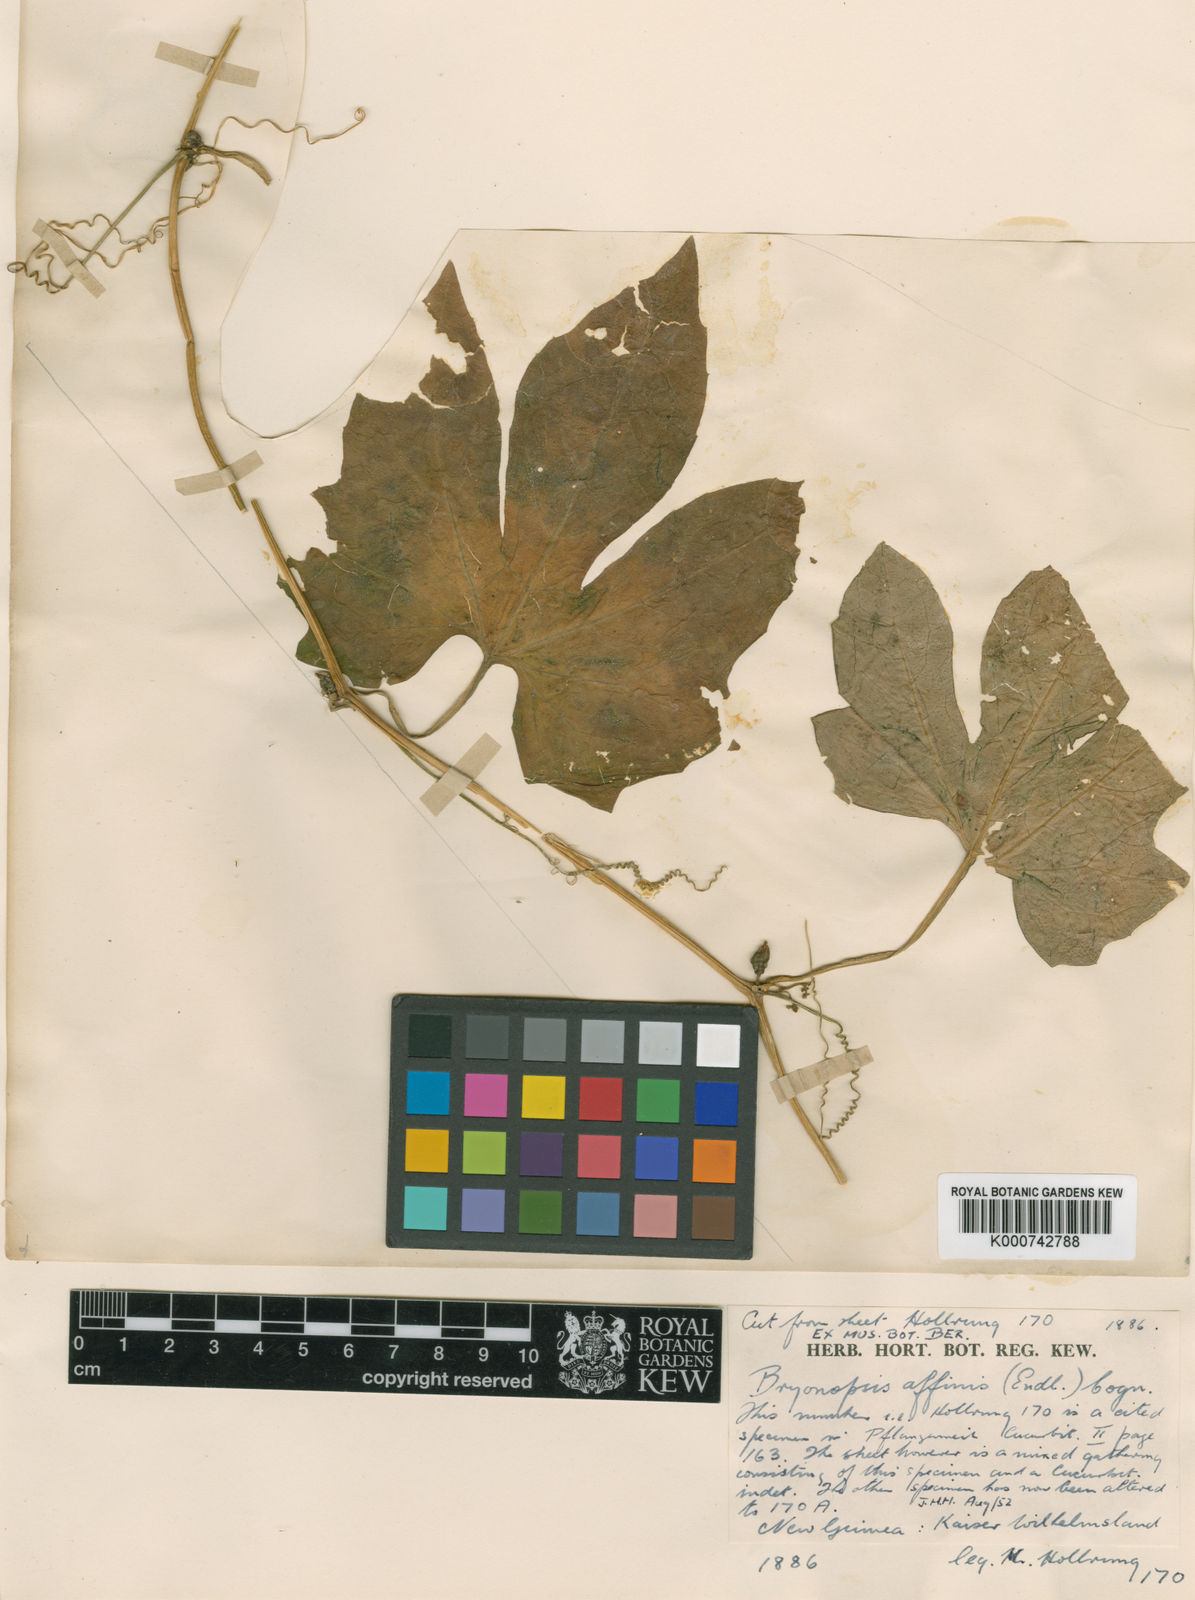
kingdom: Plantae
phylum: Tracheophyta
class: Magnoliopsida
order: Cucurbitales
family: Cucurbitaceae
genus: Diplocyclos
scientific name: Diplocyclos palmatus
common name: Striped-cucumber
